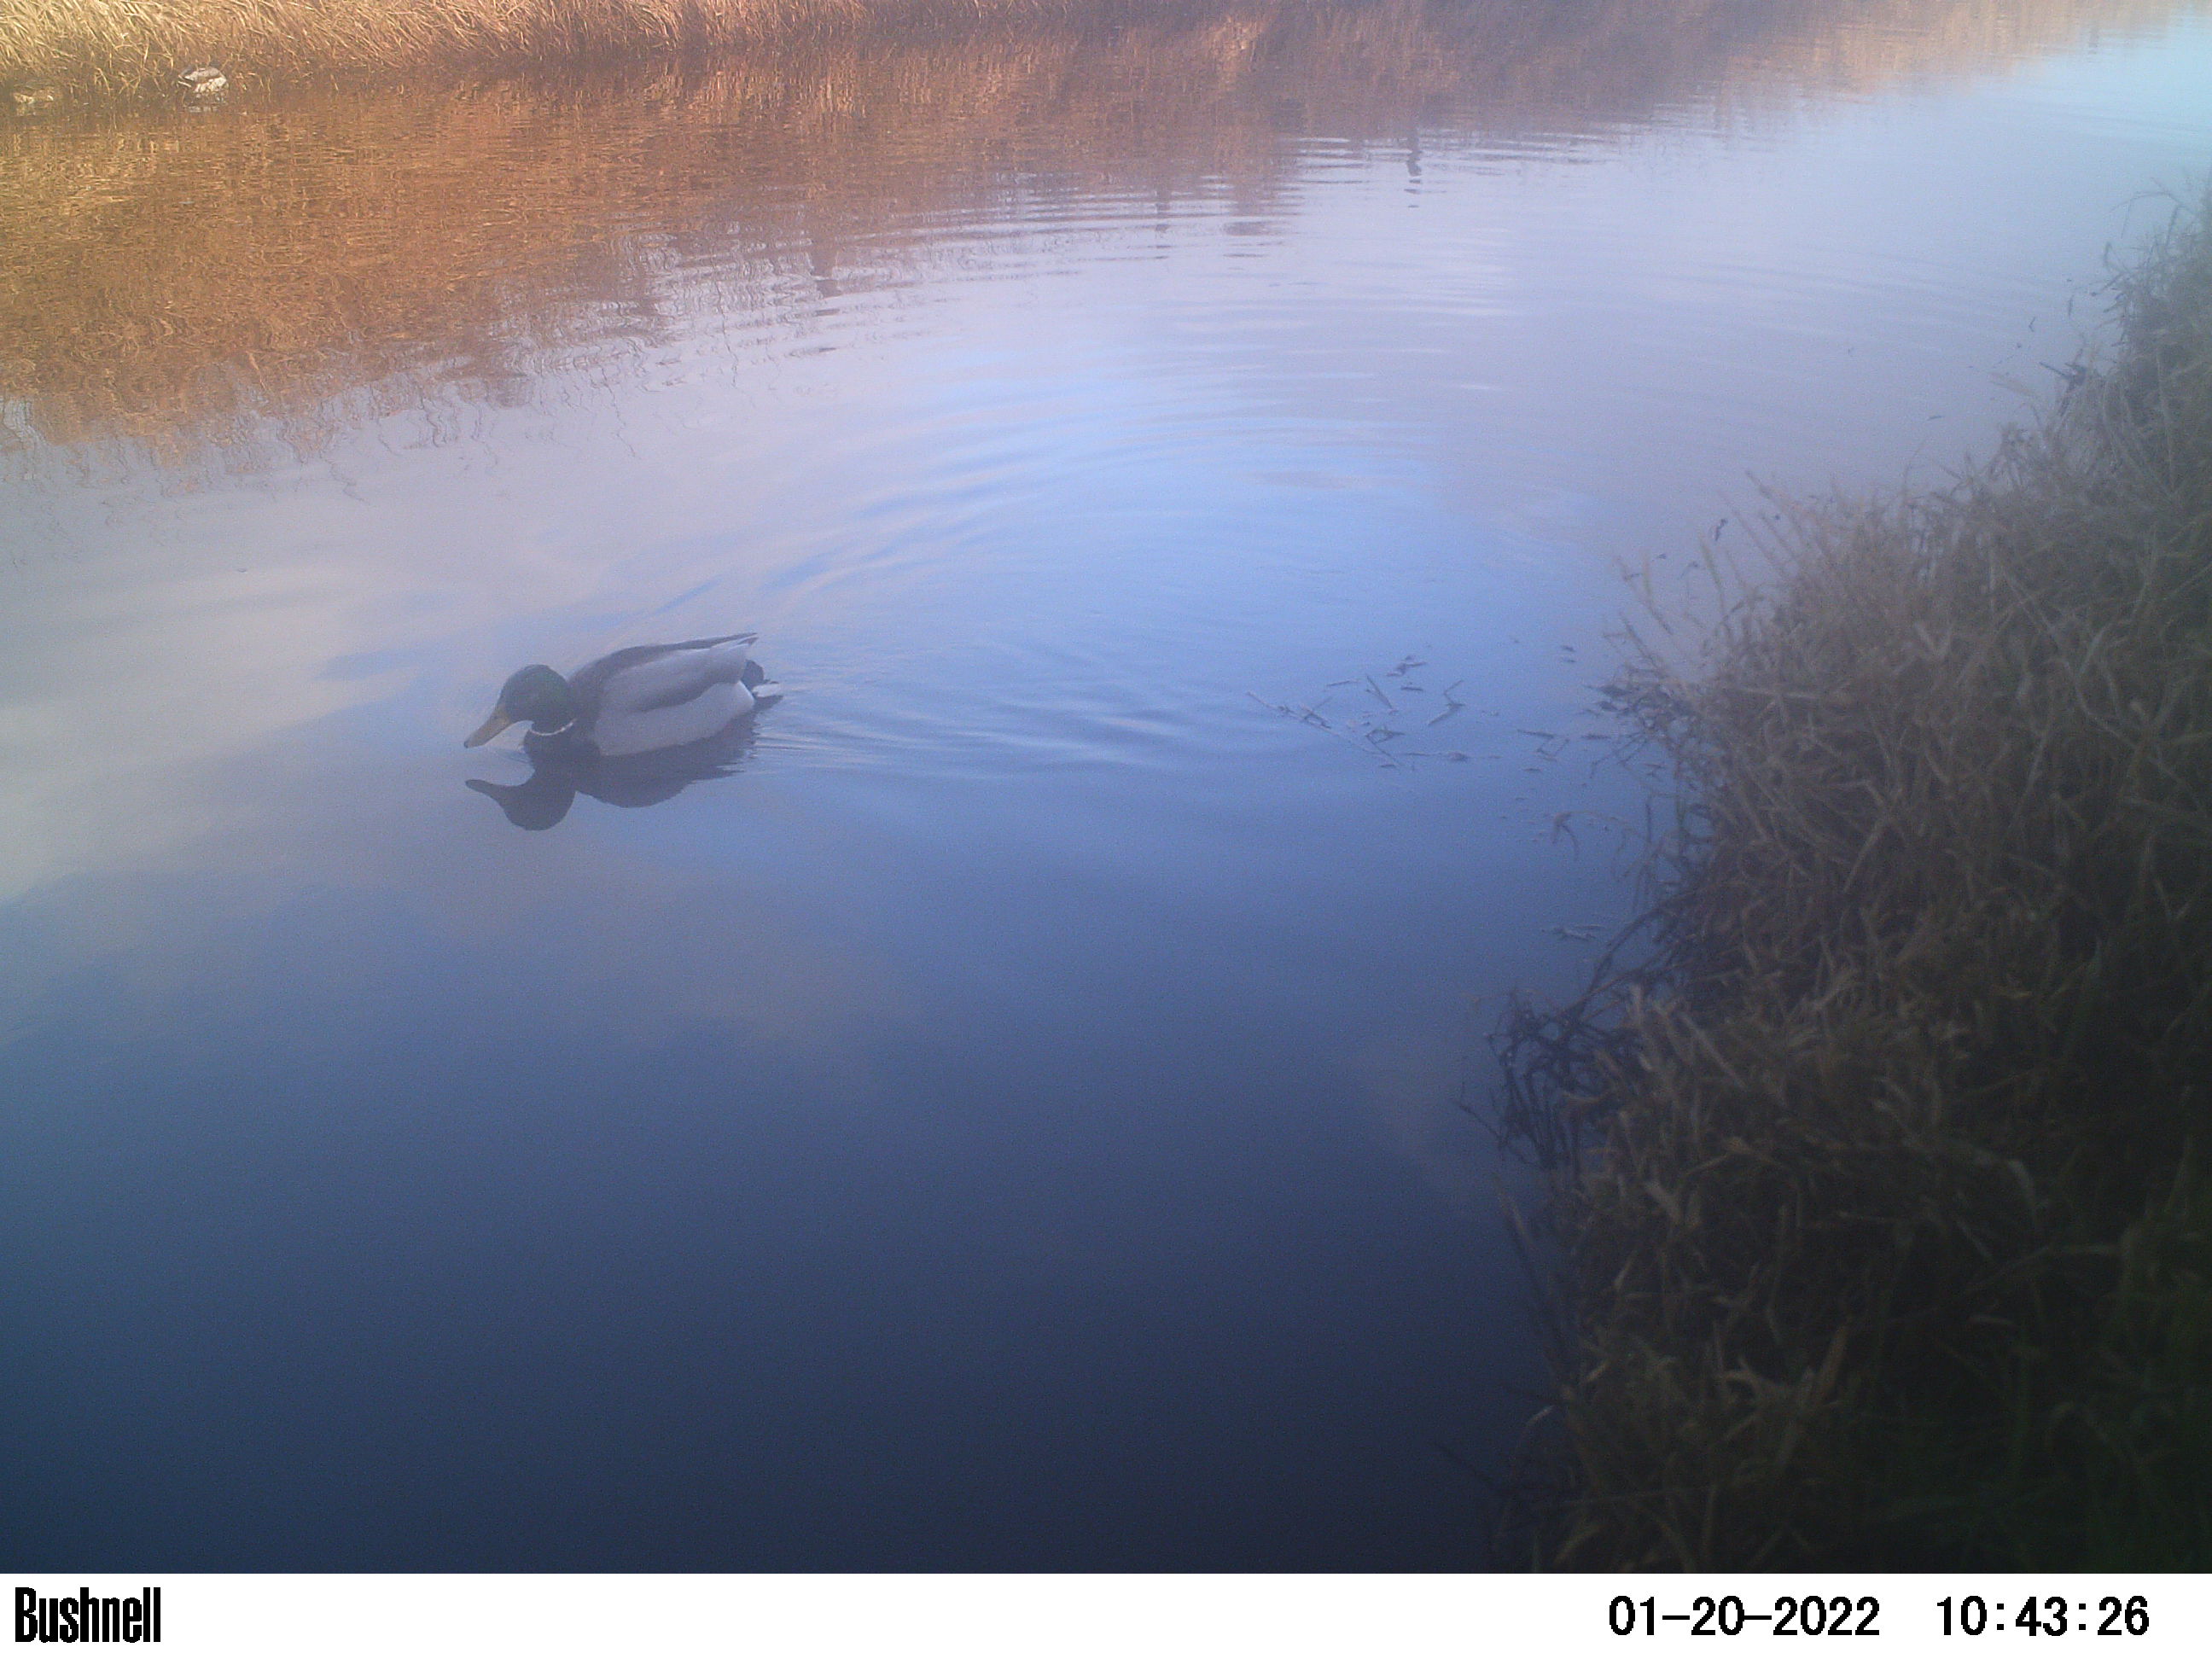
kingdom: Animalia
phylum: Chordata
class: Aves
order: Anseriformes
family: Anatidae
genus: Anas
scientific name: Anas
